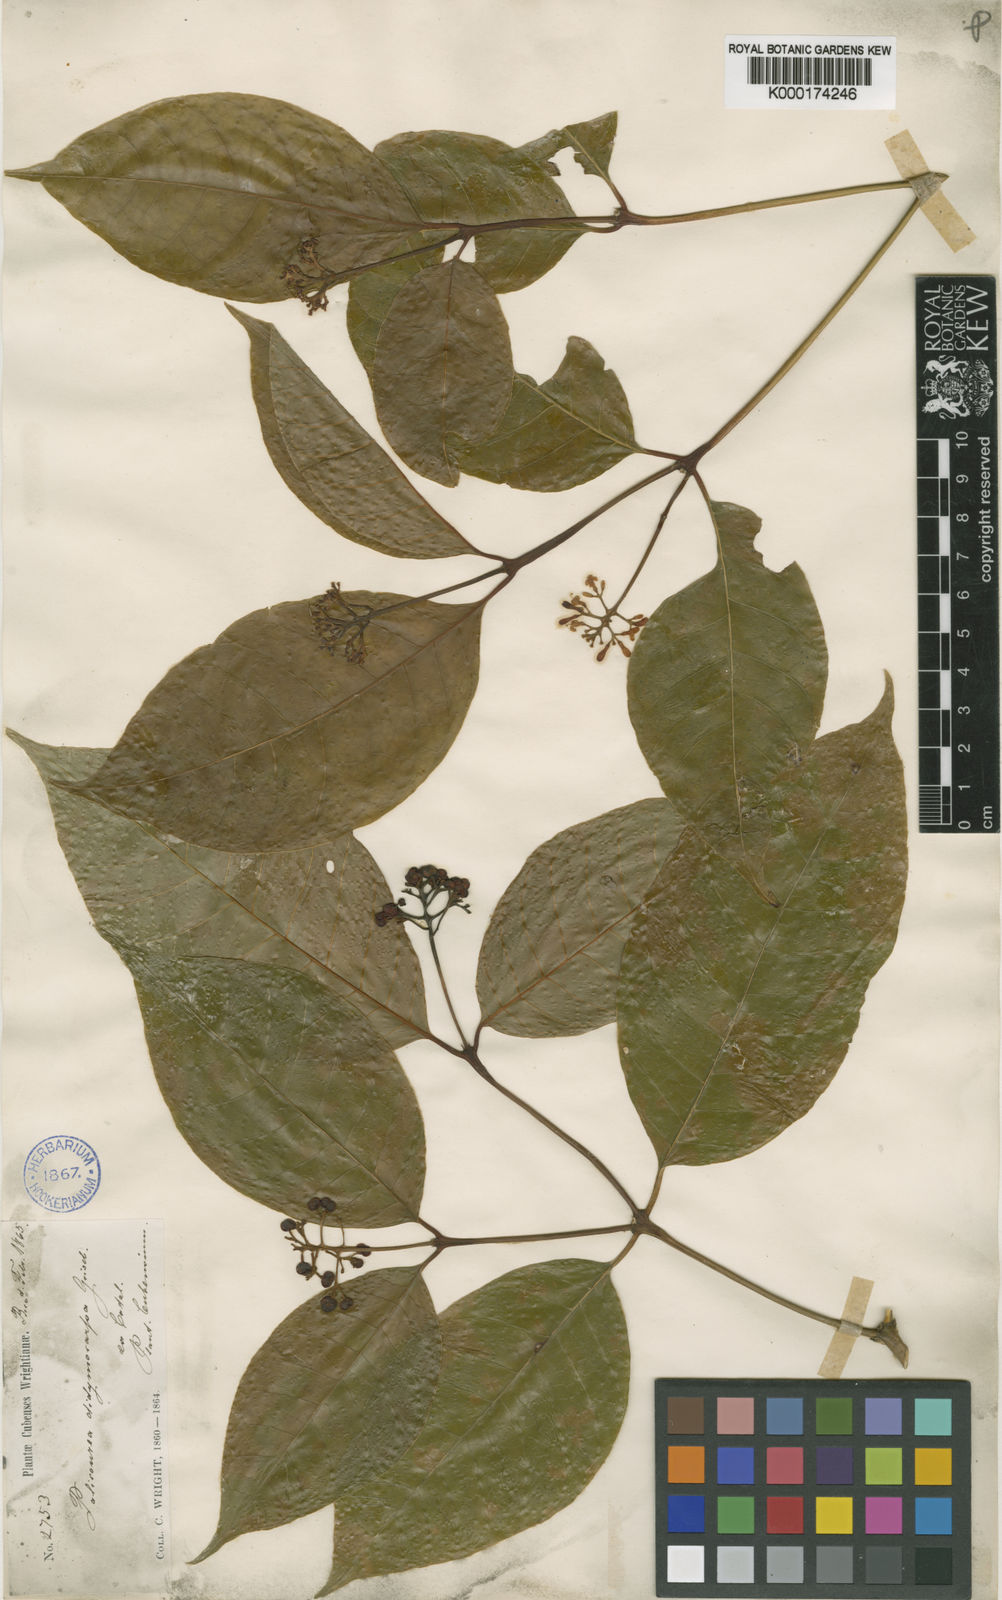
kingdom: Plantae
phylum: Tracheophyta
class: Magnoliopsida
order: Gentianales
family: Rubiaceae
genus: Palicourea
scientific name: Palicourea acuminata
